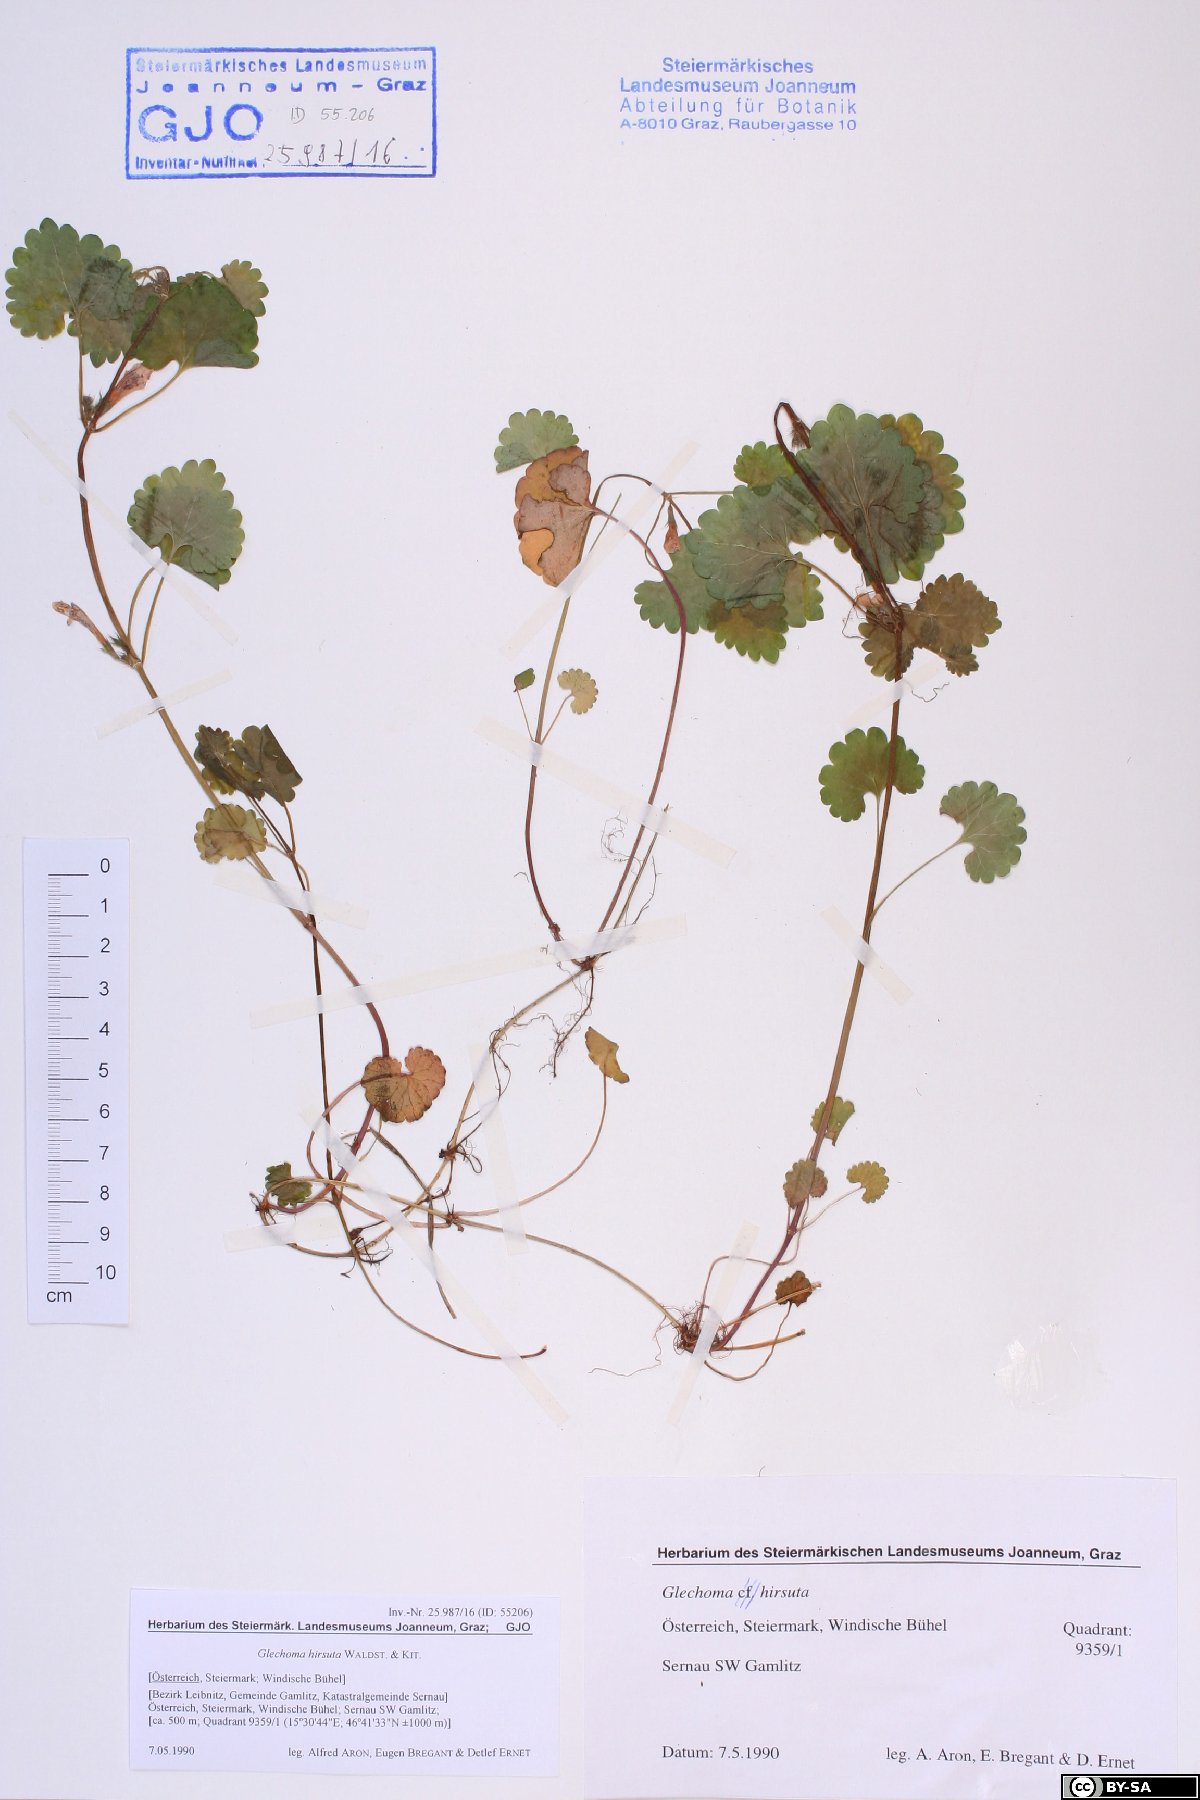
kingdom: Plantae
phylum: Tracheophyta
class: Magnoliopsida
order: Lamiales
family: Lamiaceae
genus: Glechoma
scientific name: Glechoma hirsuta
